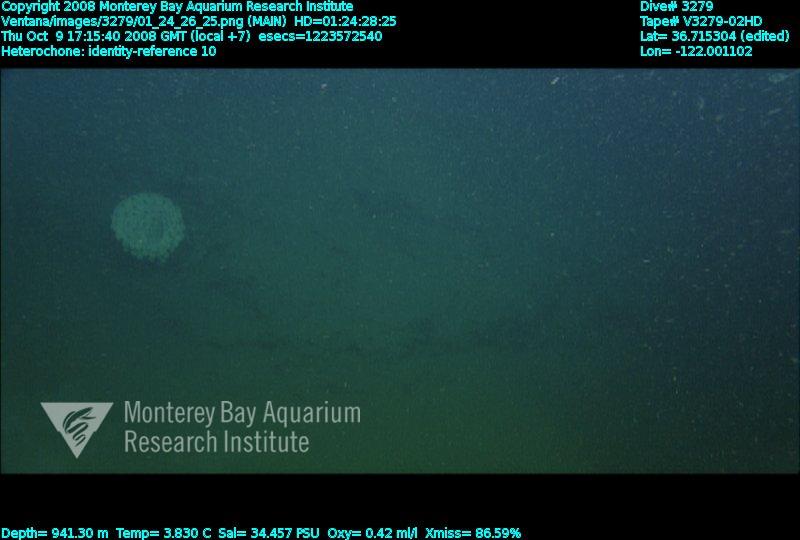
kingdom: Animalia
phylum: Porifera
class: Hexactinellida
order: Sceptrulophora
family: Aphrocallistidae
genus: Heterochone
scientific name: Heterochone
